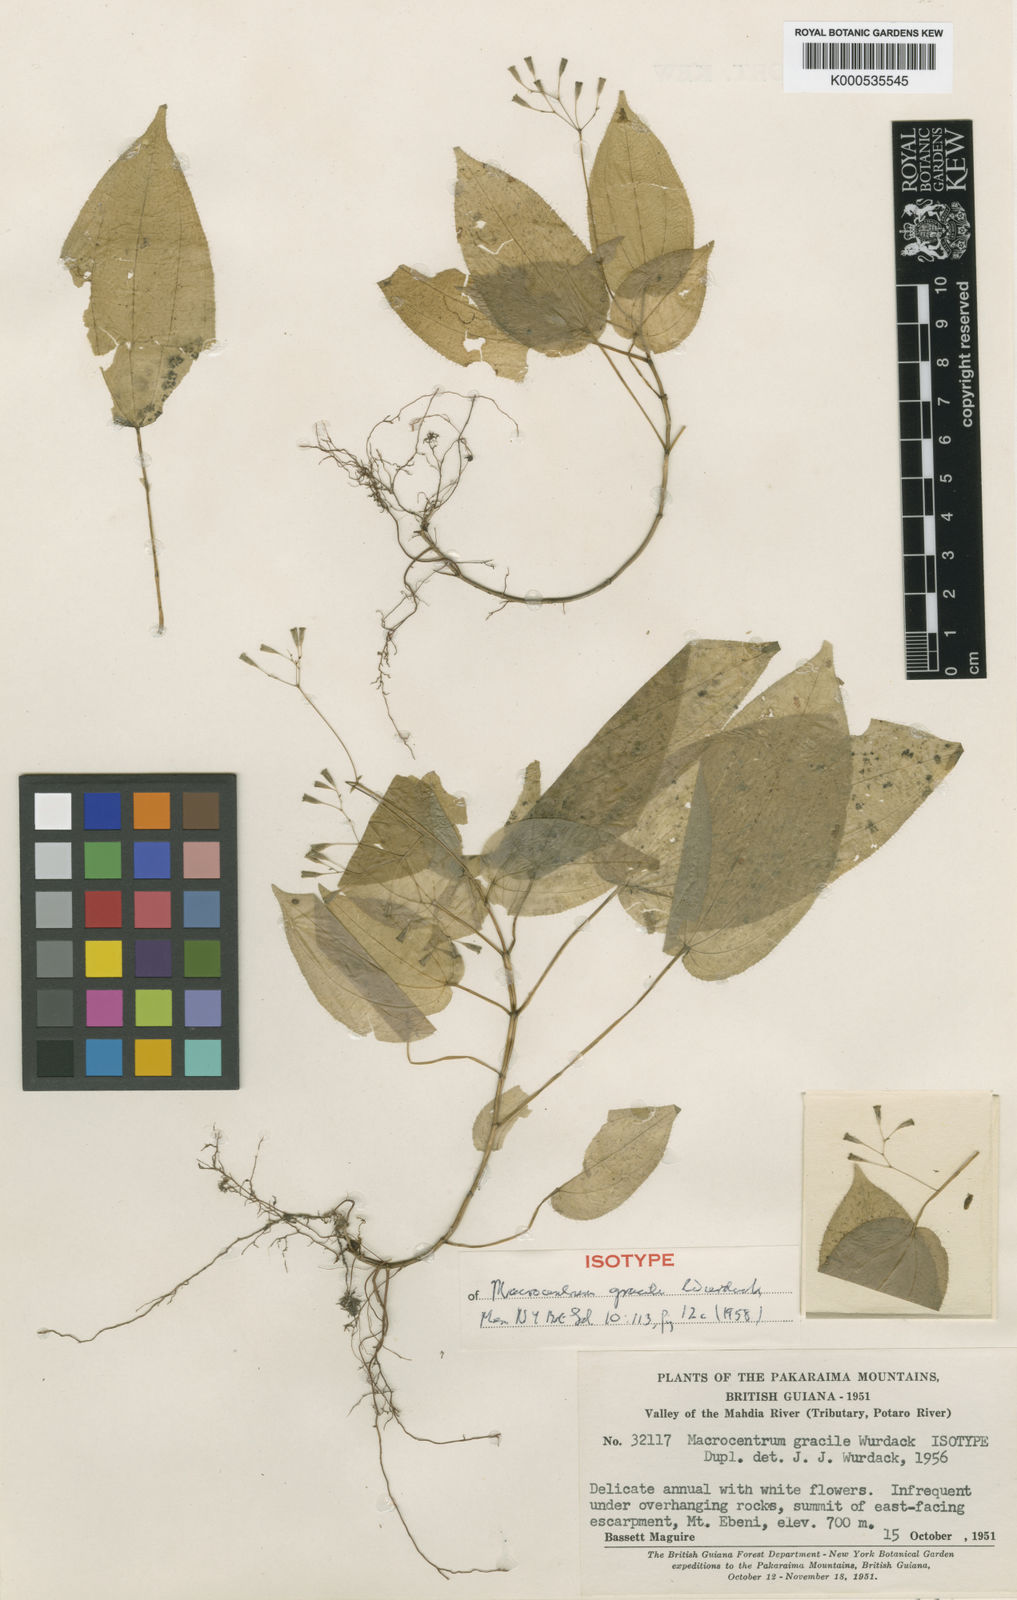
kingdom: Plantae
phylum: Tracheophyta
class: Magnoliopsida
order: Myrtales
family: Melastomataceae
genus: Macrocentrum
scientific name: Macrocentrum gracile
